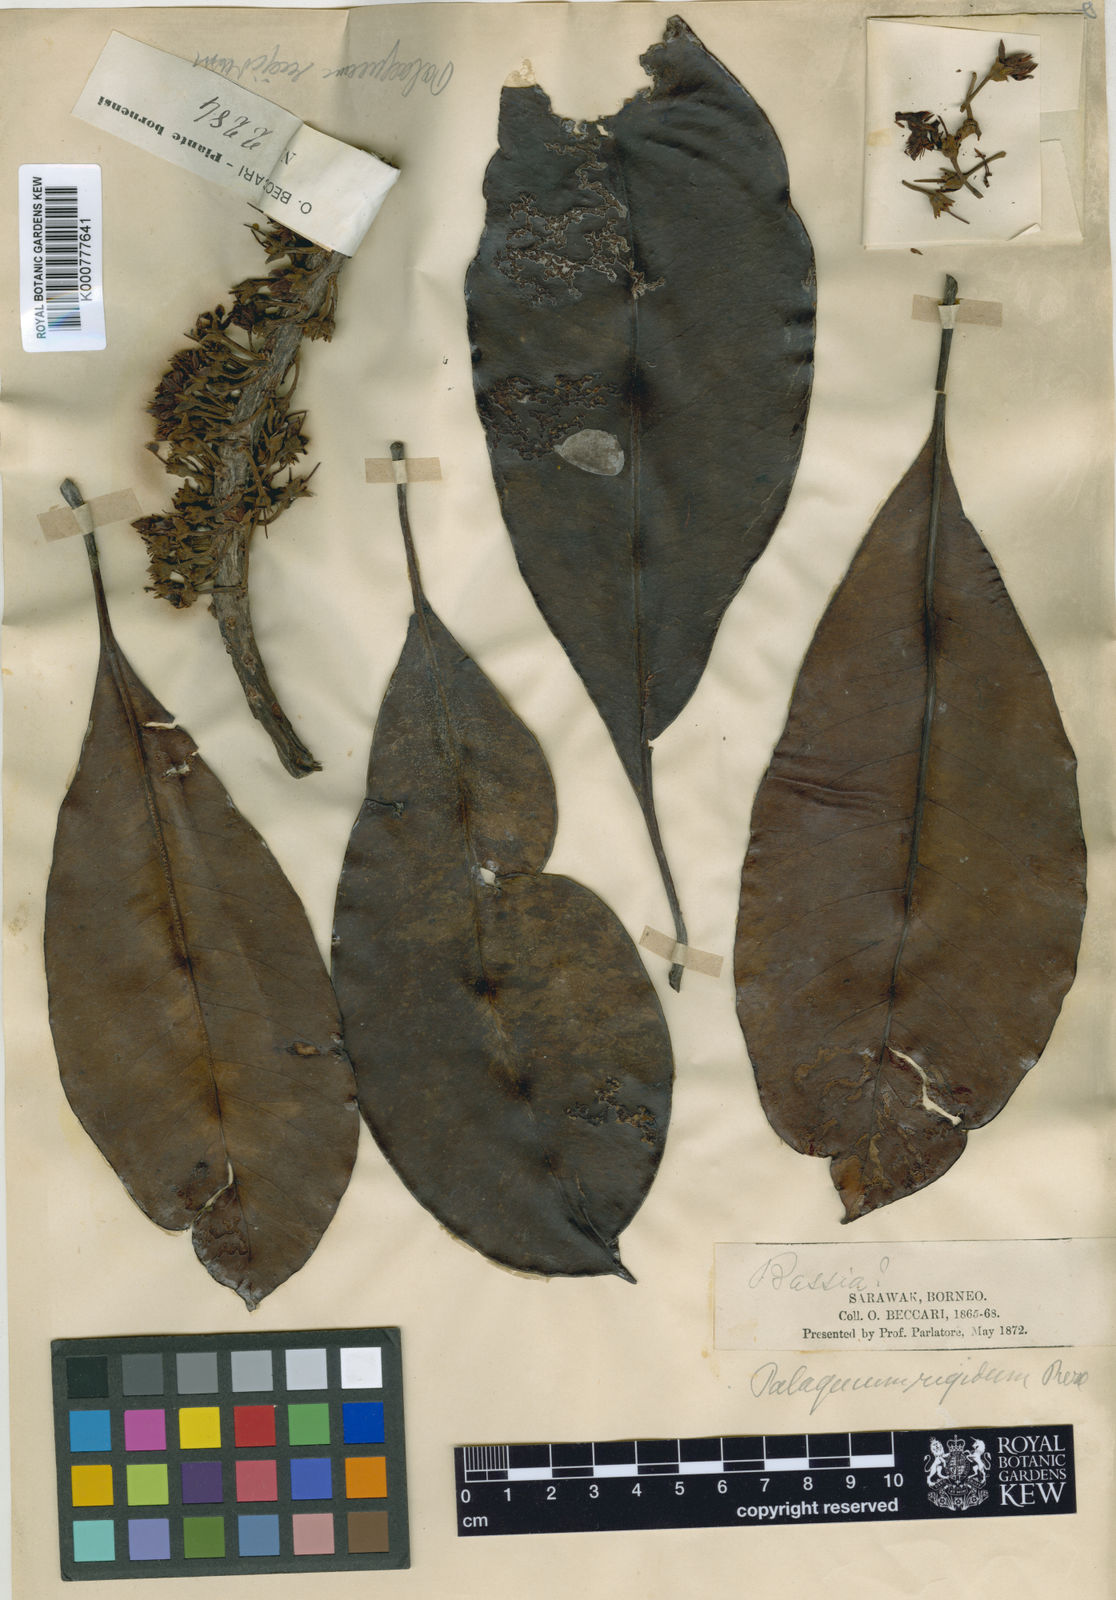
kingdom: Plantae
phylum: Tracheophyta
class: Magnoliopsida
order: Ericales
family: Sapotaceae
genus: Palaquium
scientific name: Palaquium rigidum
